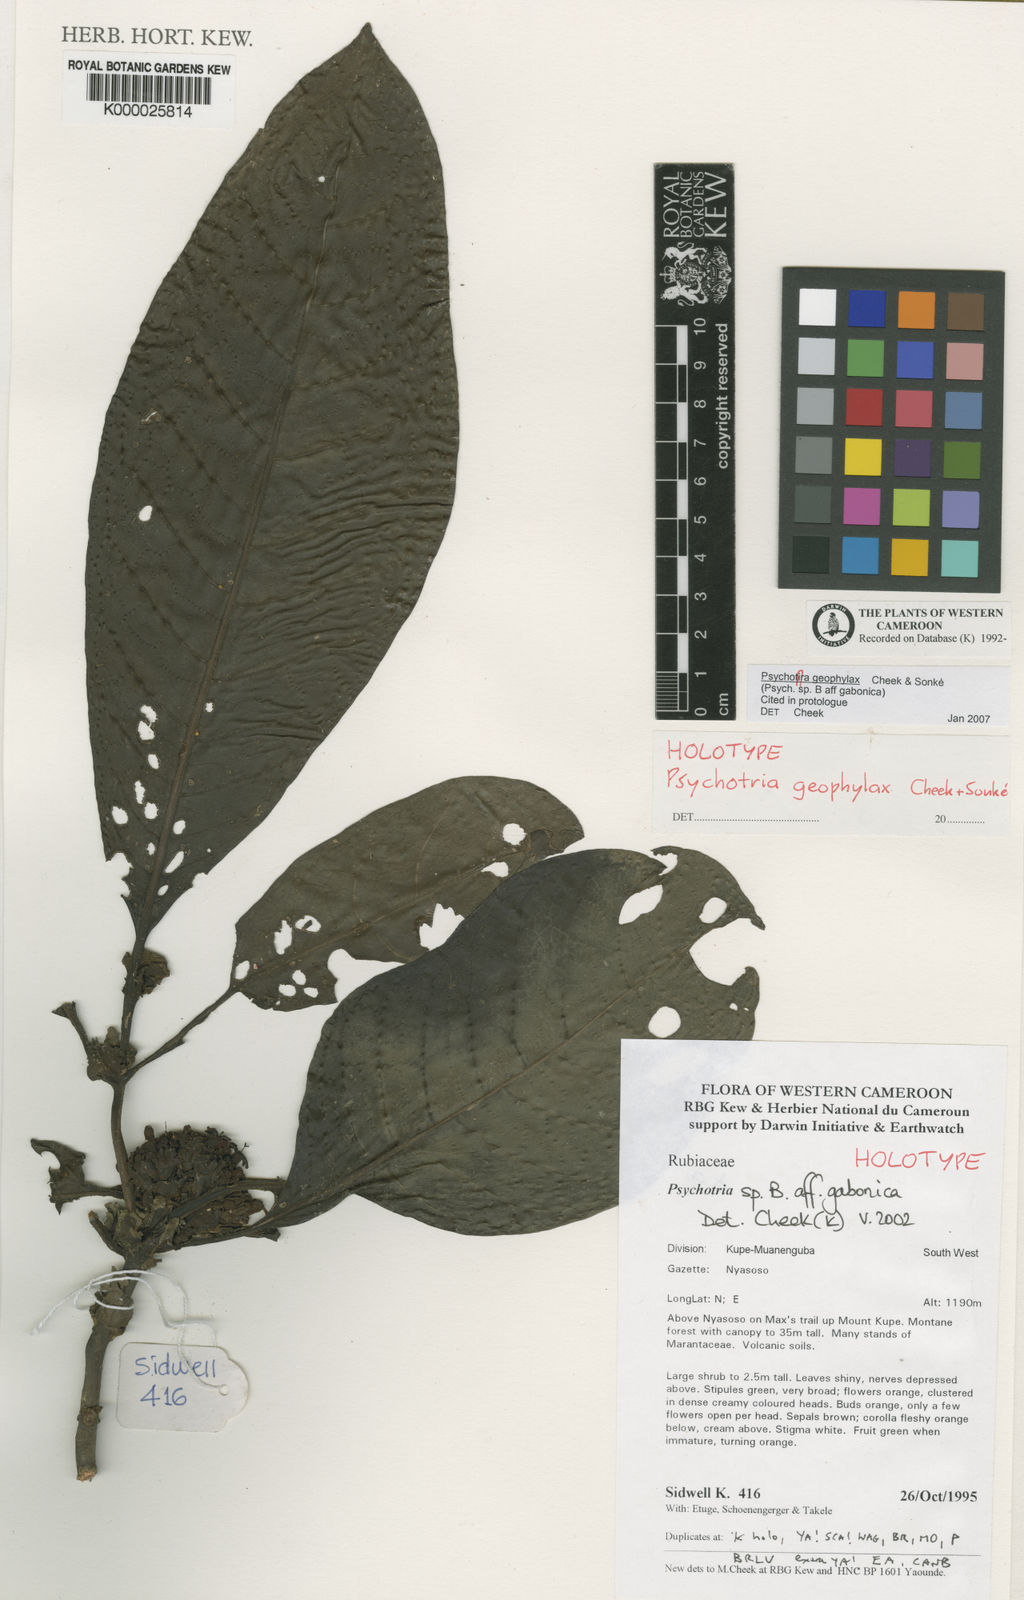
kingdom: Plantae
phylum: Tracheophyta
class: Magnoliopsida
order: Gentianales
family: Rubiaceae
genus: Psychotria
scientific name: Psychotria
